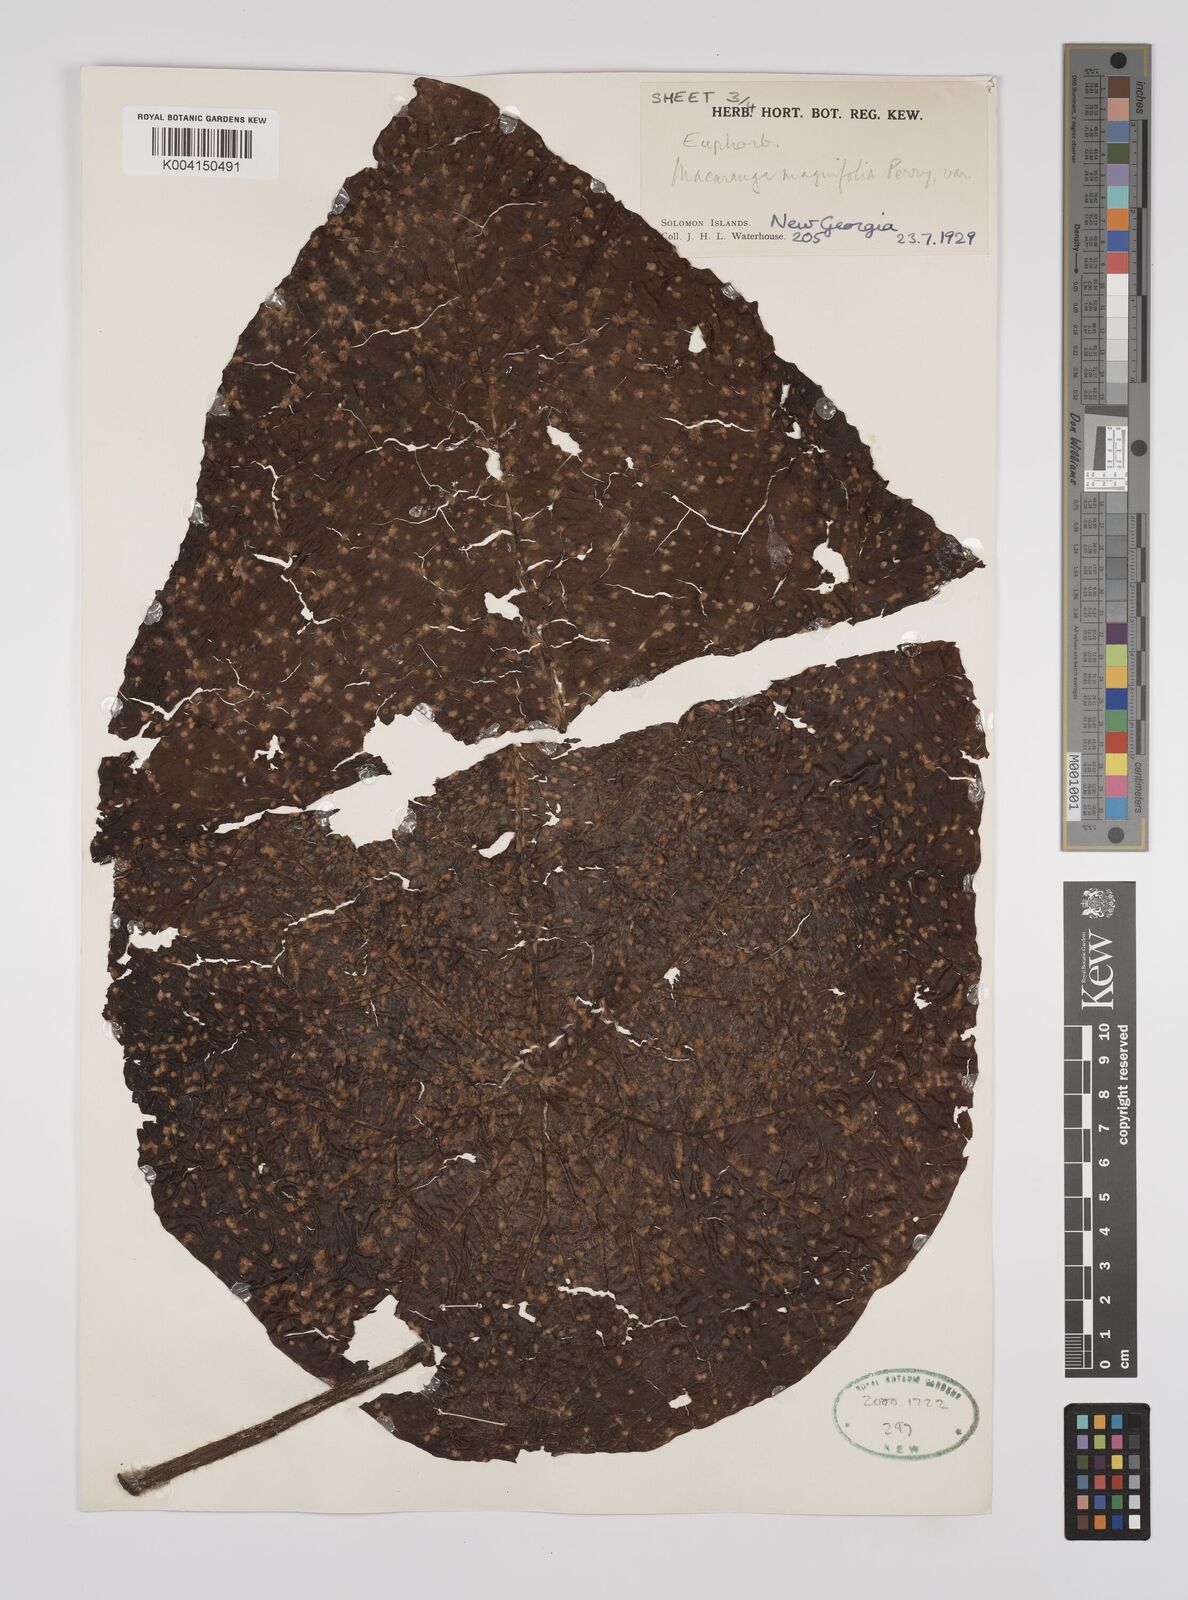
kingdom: Plantae
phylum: Tracheophyta
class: Magnoliopsida
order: Malpighiales
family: Euphorbiaceae
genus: Macaranga
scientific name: Macaranga magnifolia
